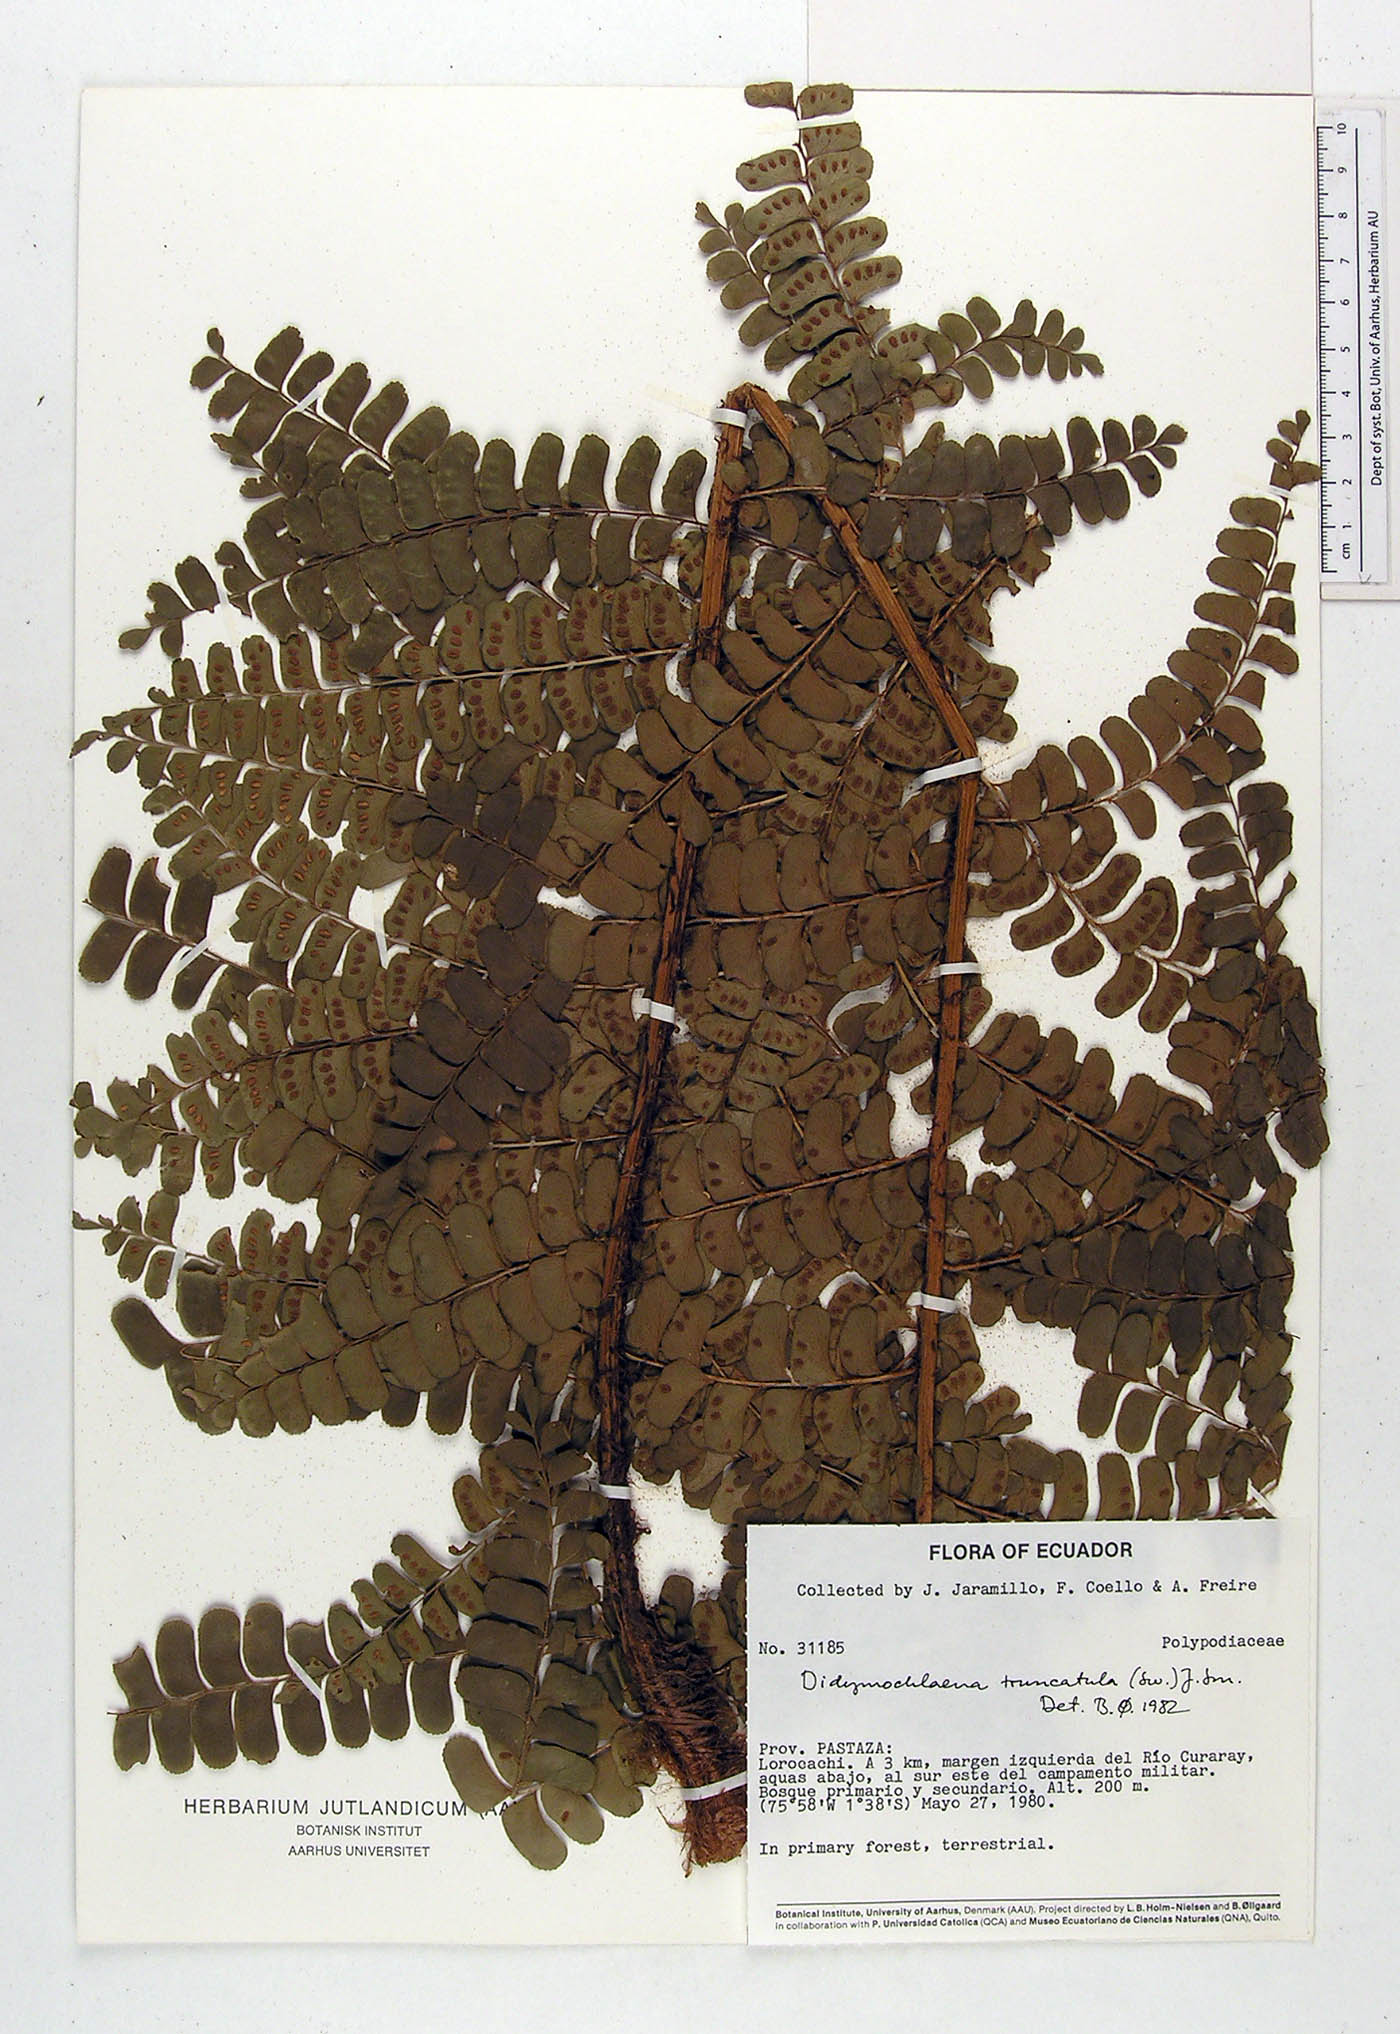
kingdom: Plantae
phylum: Tracheophyta
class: Polypodiopsida
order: Polypodiales
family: Didymochlaenaceae
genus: Didymochlaena
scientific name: Didymochlaena truncatula
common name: Mahogany fern
